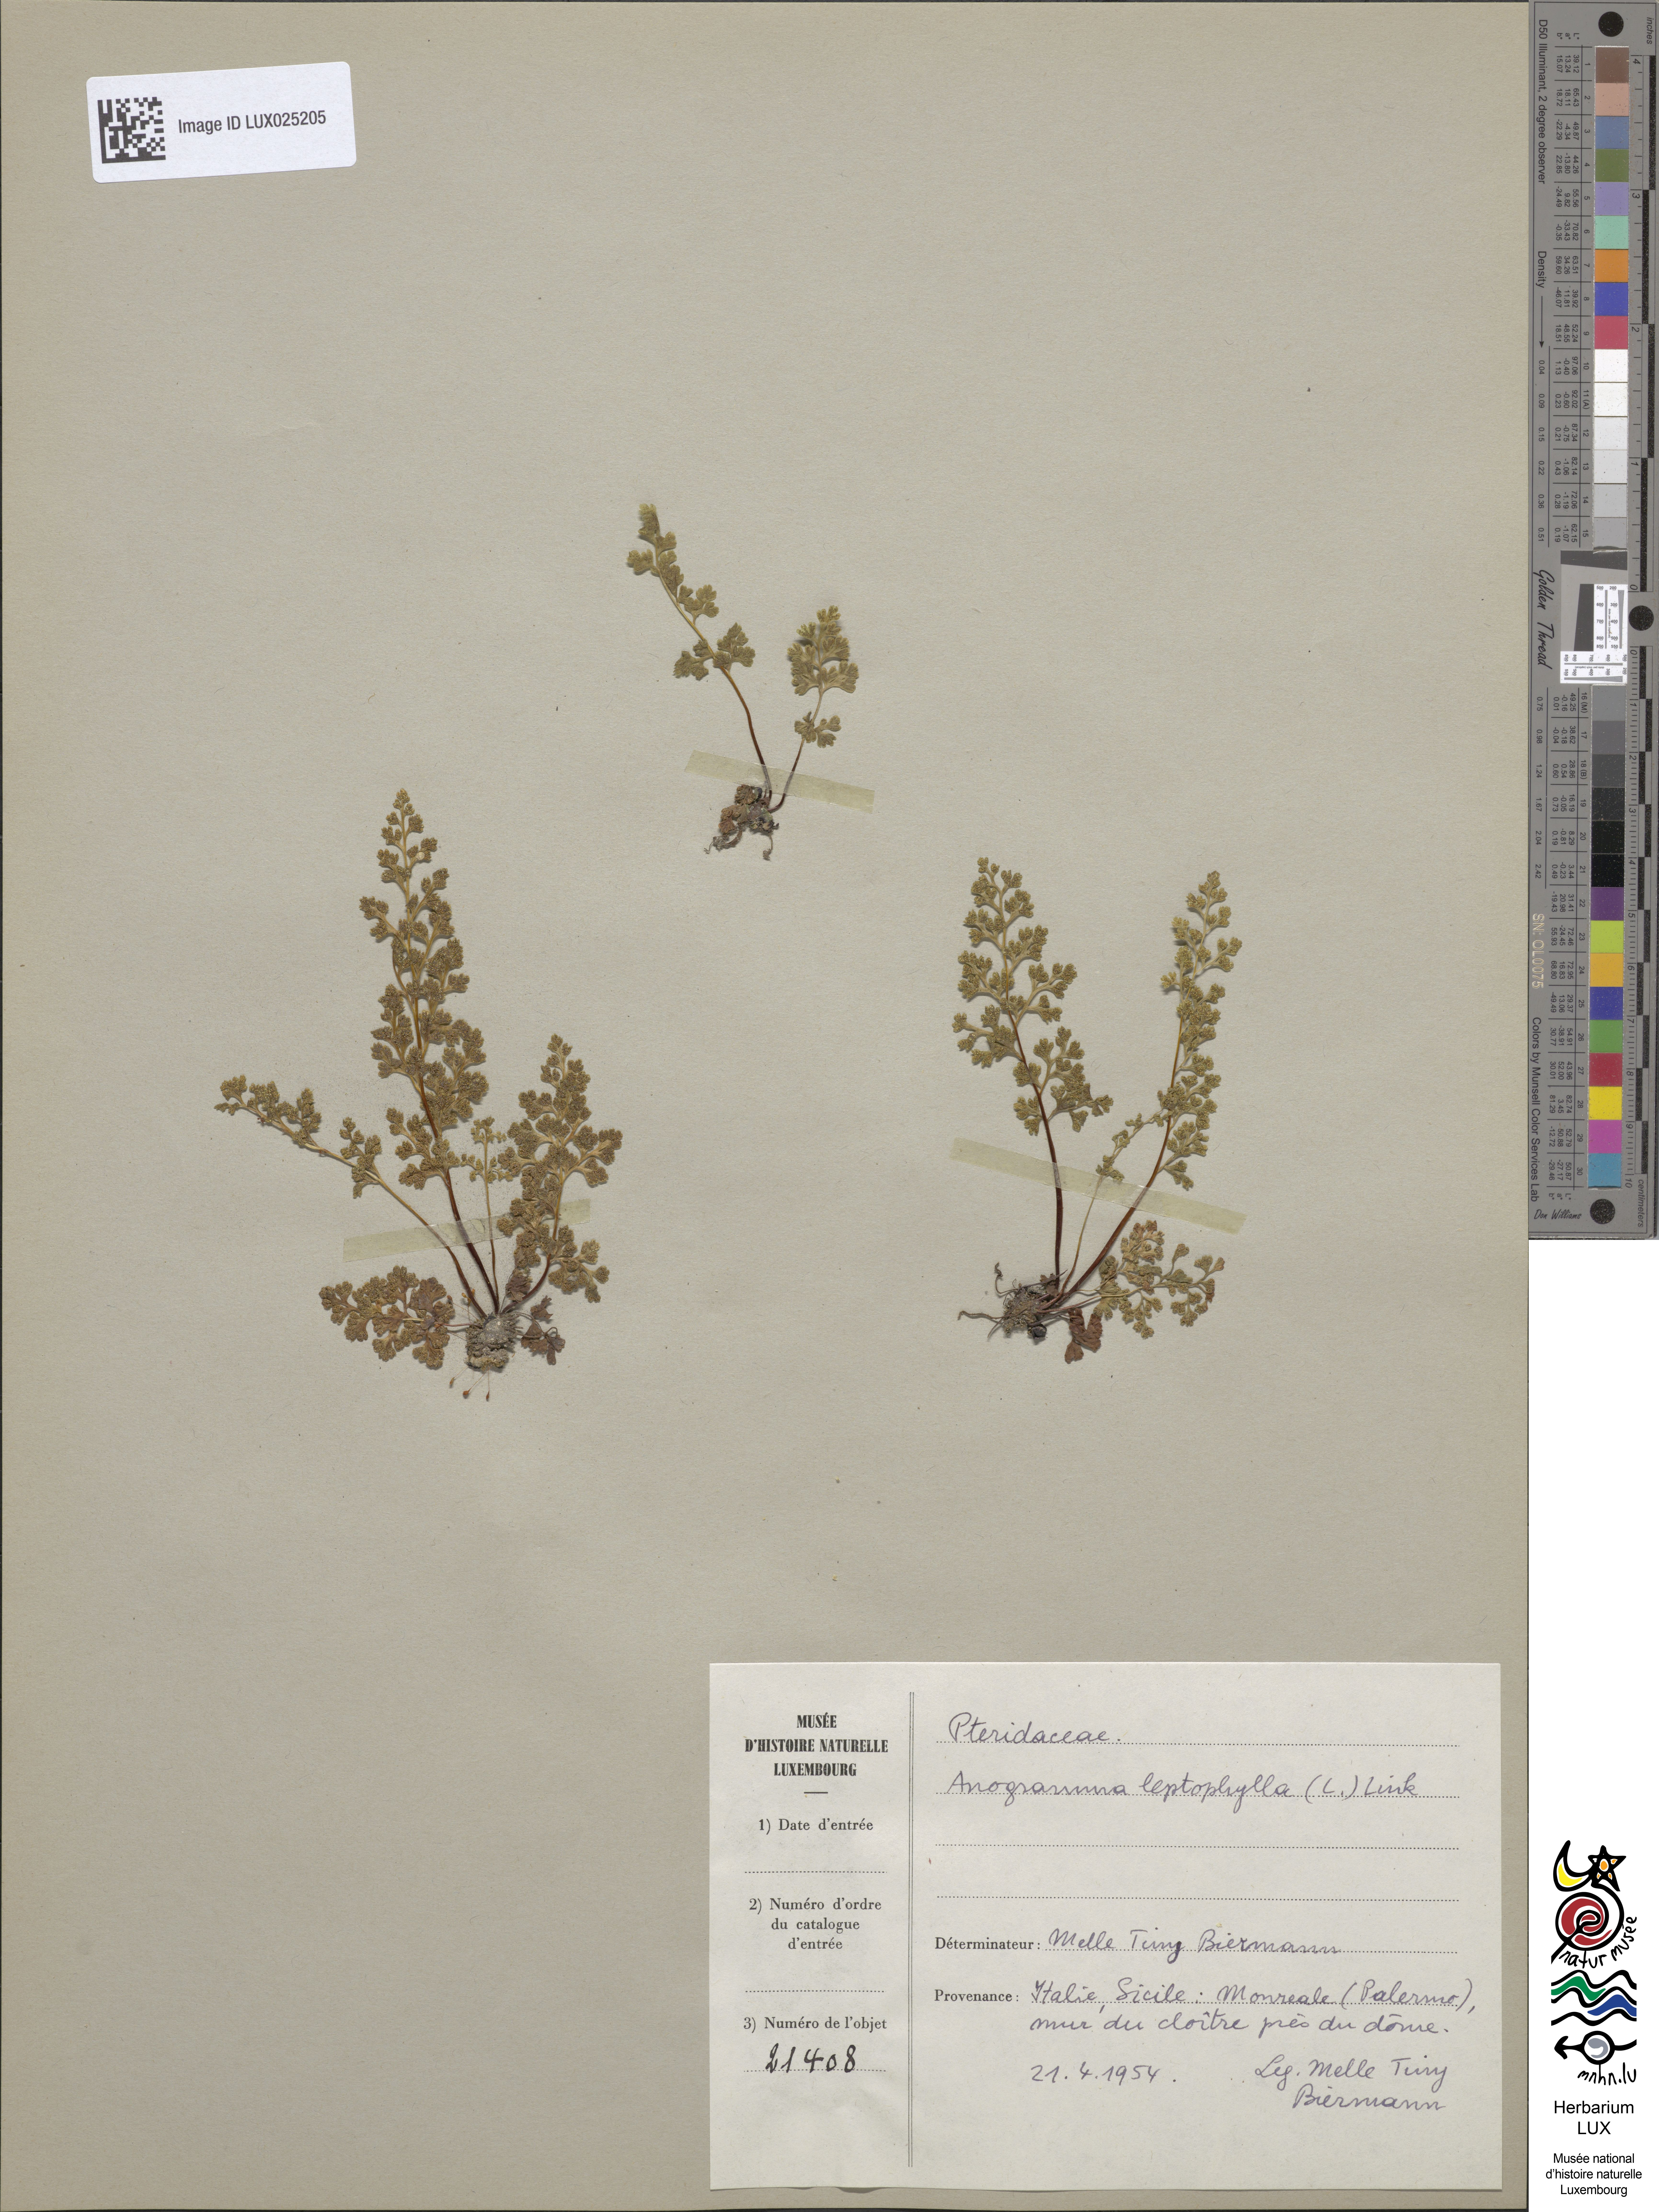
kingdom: Plantae
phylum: Tracheophyta
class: Polypodiopsida
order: Polypodiales
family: Pteridaceae
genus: Anogramma
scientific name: Anogramma leptophylla
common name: Jersey fern
